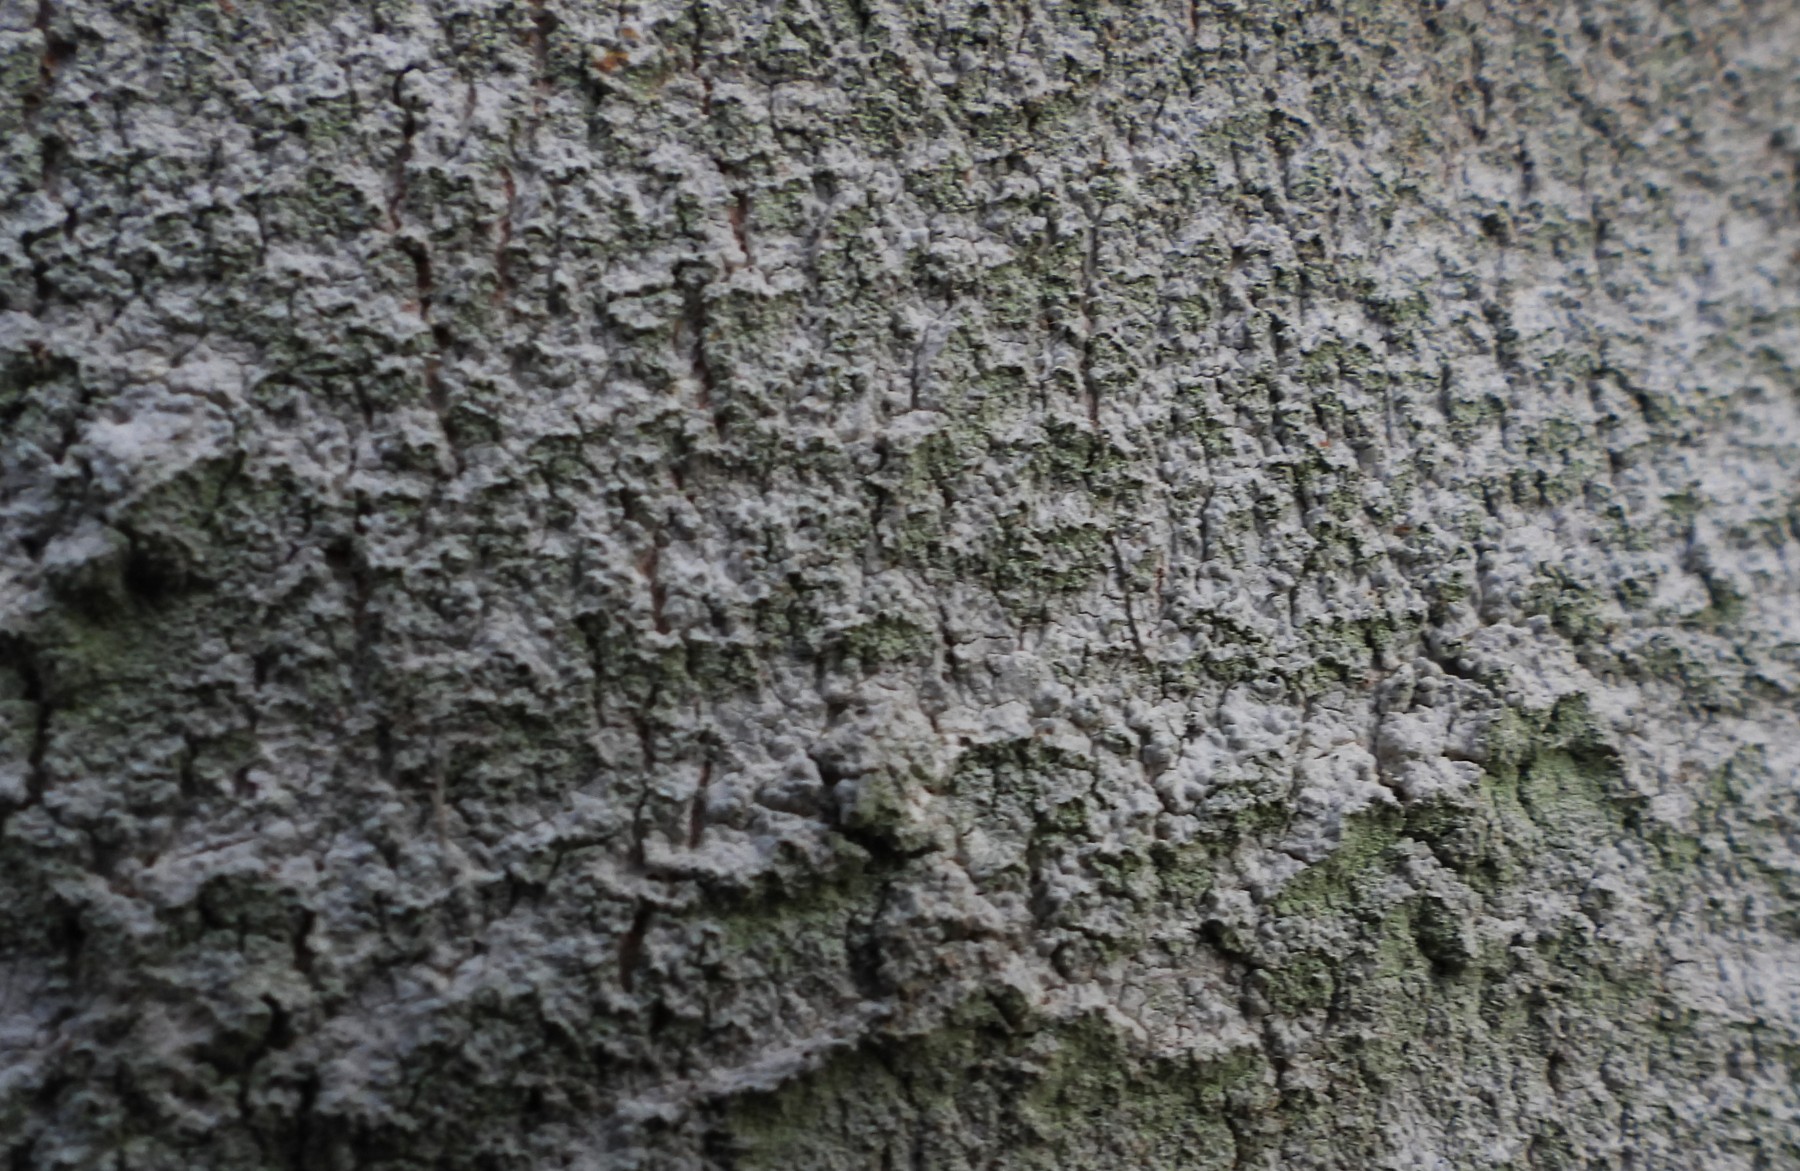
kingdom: Fungi
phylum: Ascomycota
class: Lecanoromycetes
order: Ostropales
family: Phlyctidaceae
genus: Phlyctis
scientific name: Phlyctis argena
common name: almindelig sølvlav
